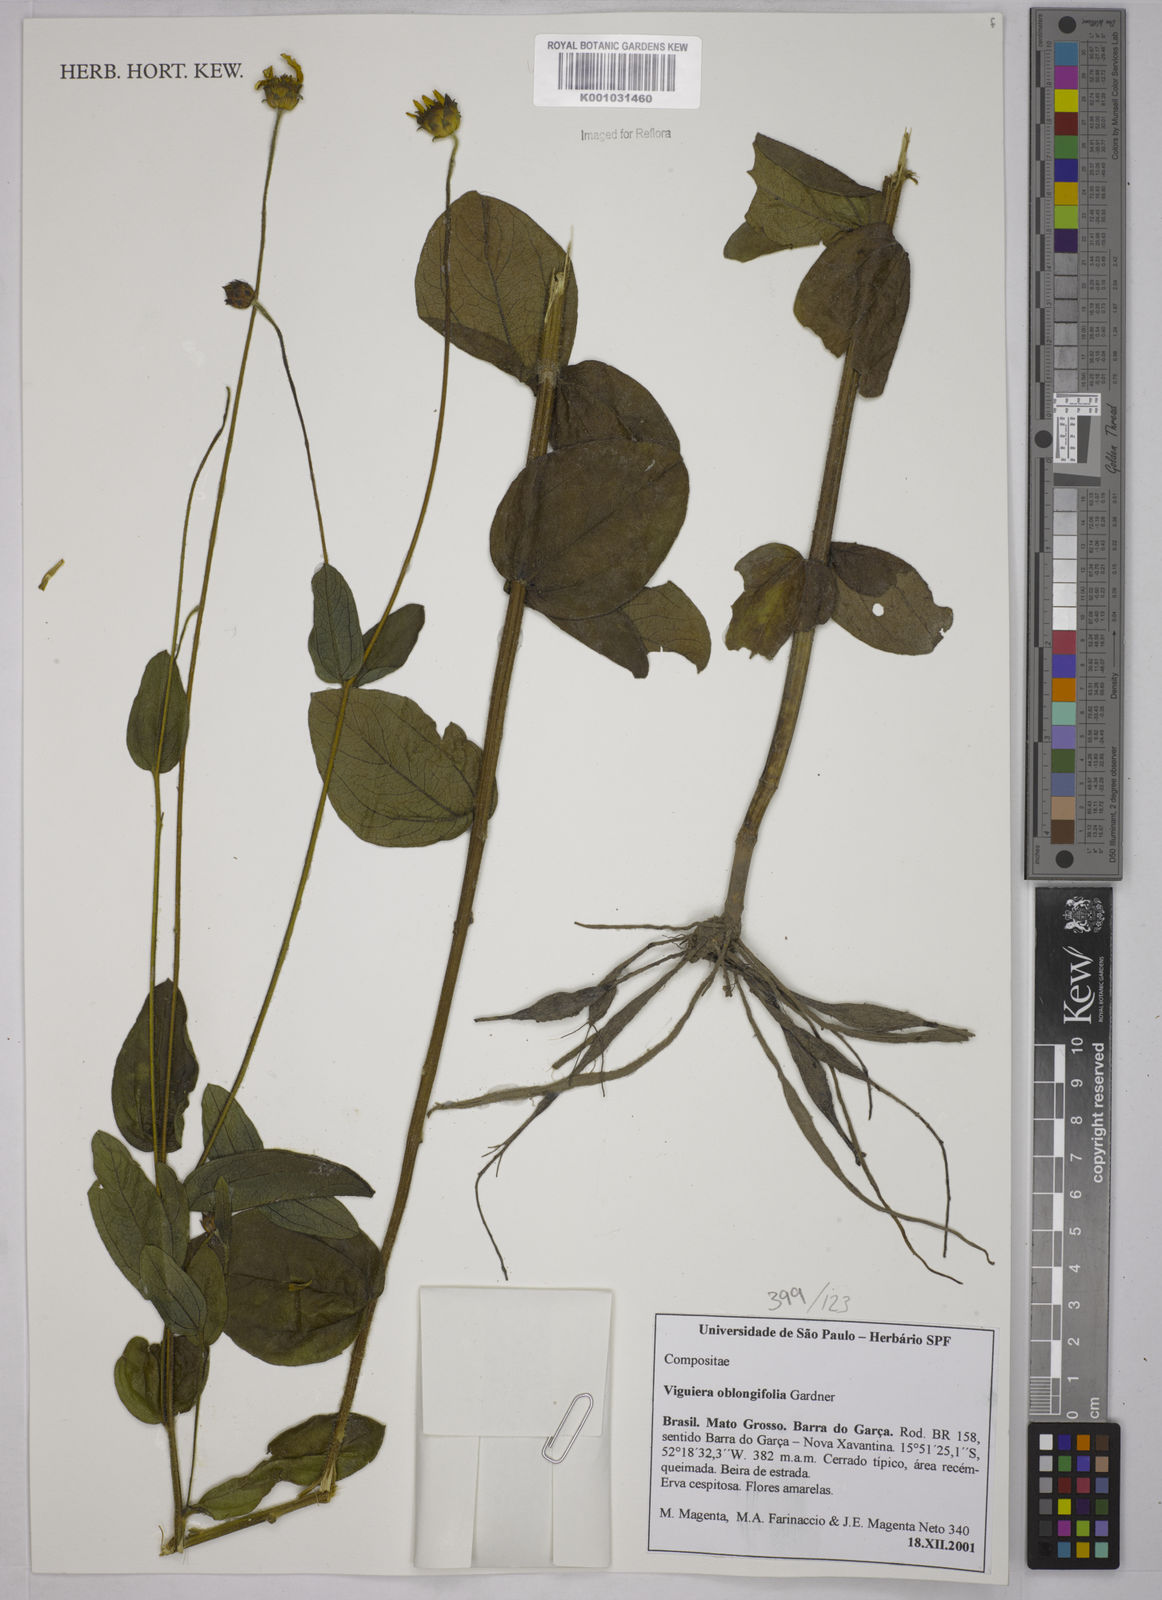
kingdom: Plantae
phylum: Tracheophyta
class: Magnoliopsida
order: Asterales
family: Asteraceae
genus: Aldama
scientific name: Aldama oblongifolia
